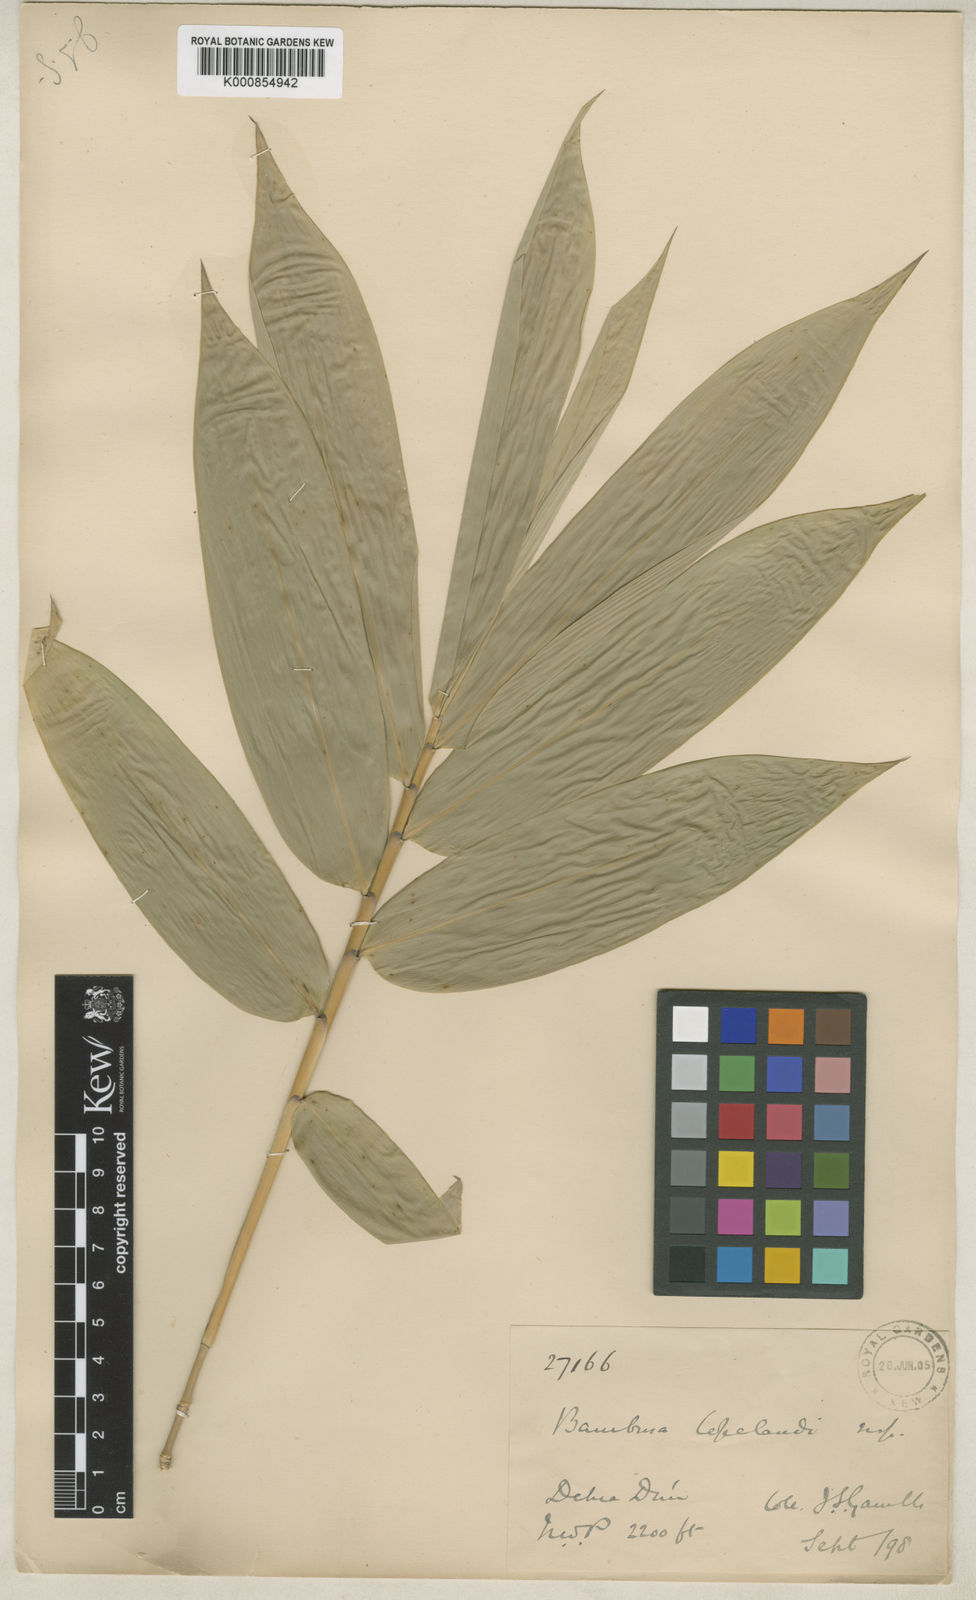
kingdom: Plantae
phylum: Tracheophyta
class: Liliopsida
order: Poales
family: Poaceae
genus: Bambusa
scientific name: Bambusa copelandii
